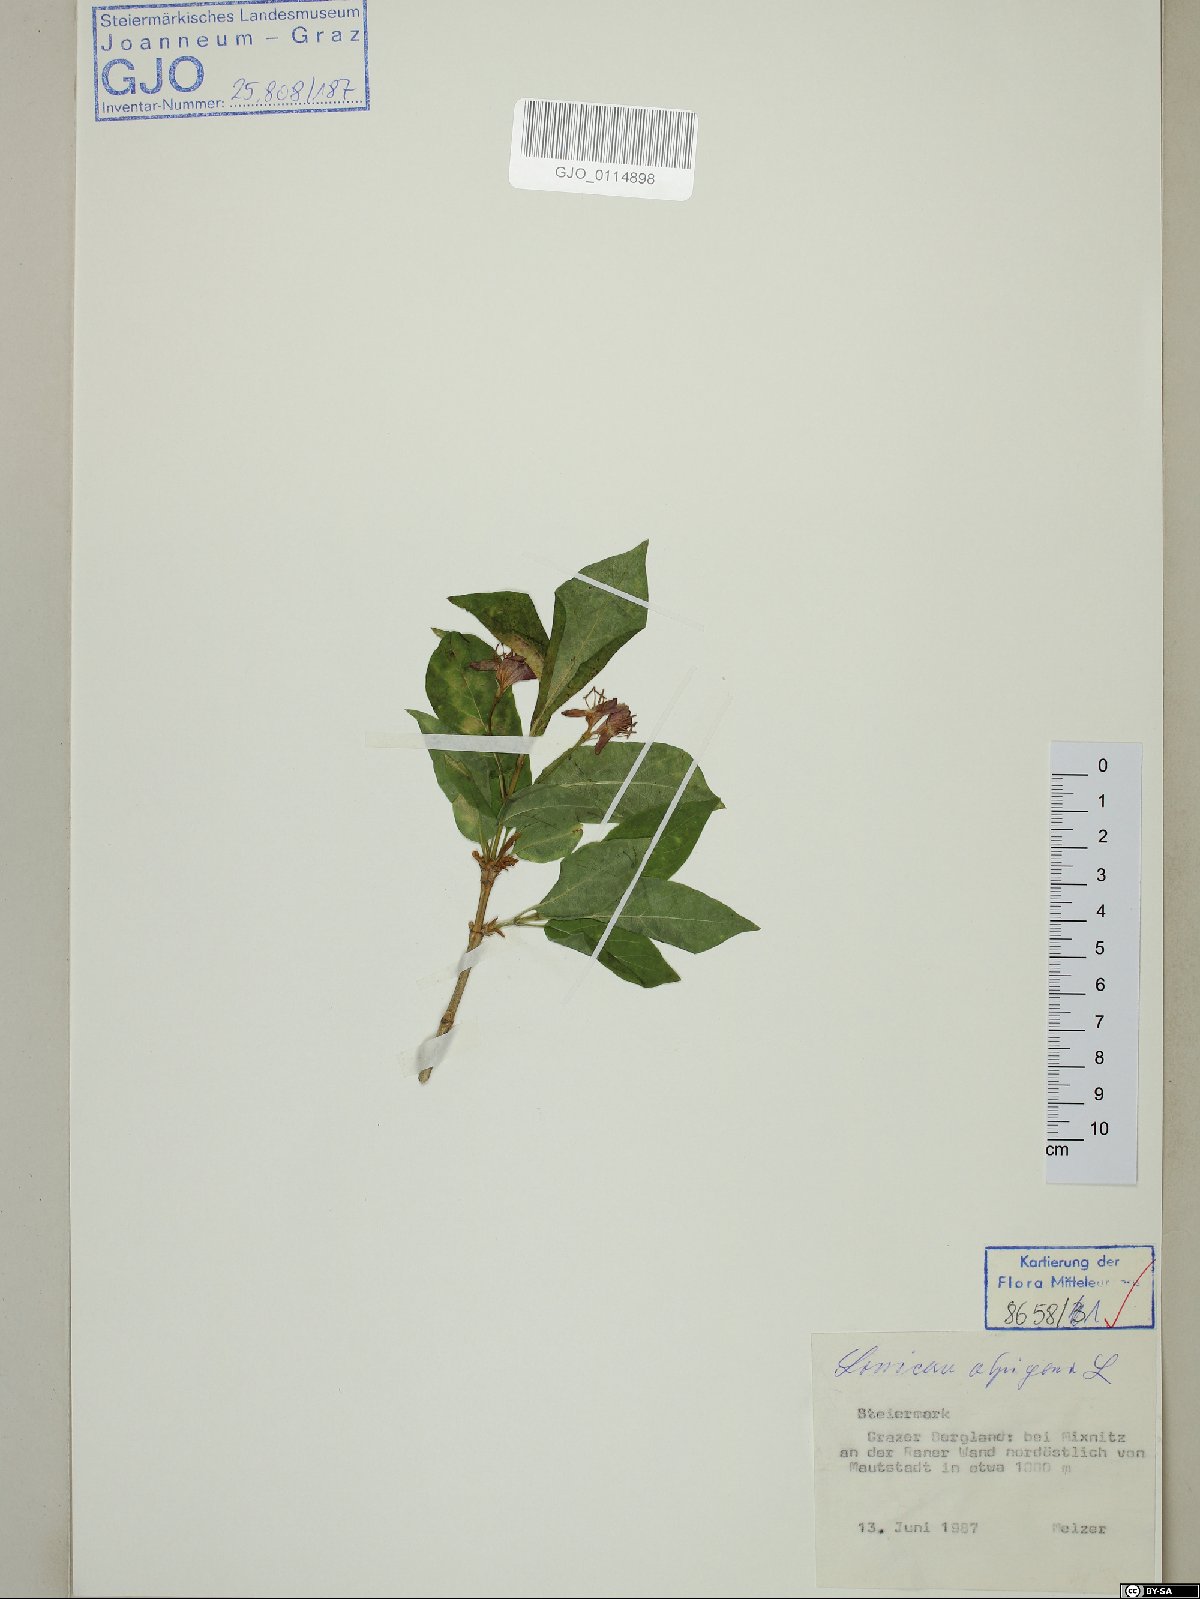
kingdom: Plantae
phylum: Tracheophyta
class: Magnoliopsida
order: Dipsacales
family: Caprifoliaceae
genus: Lonicera
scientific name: Lonicera alpigena
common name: Alpine honeysuckle
